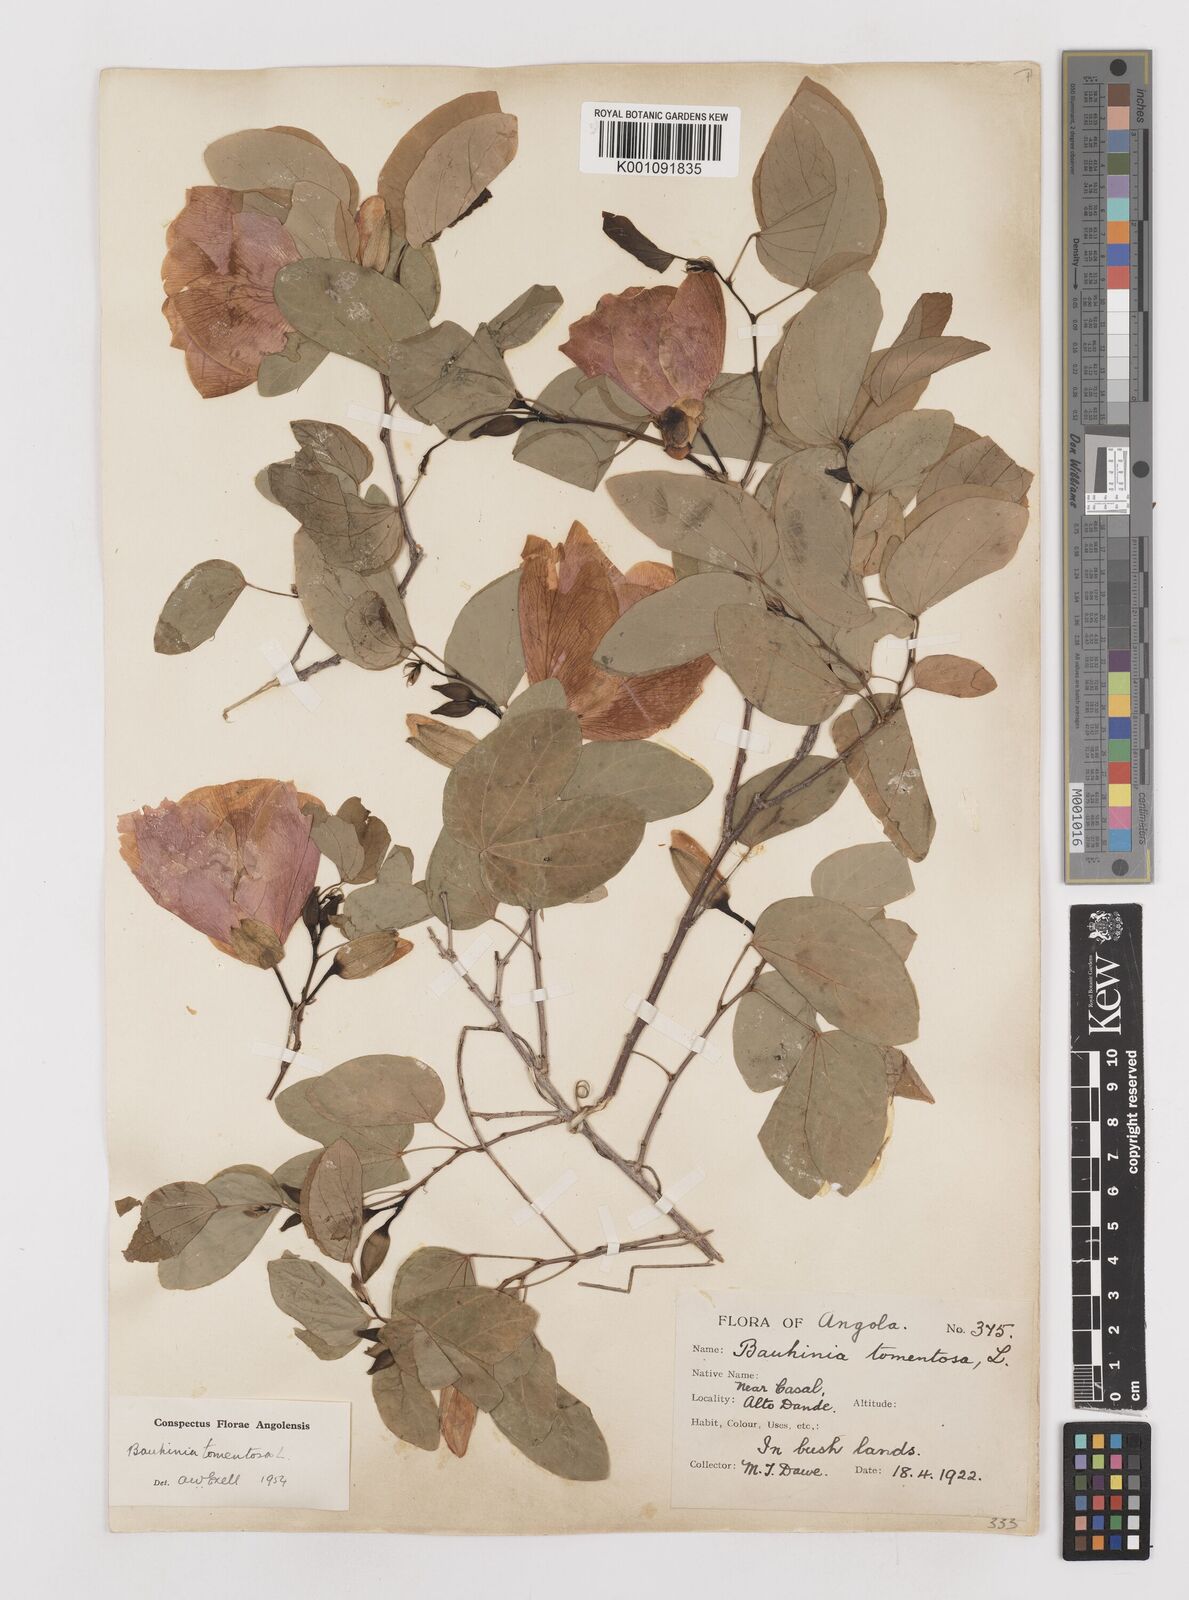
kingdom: Plantae
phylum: Tracheophyta
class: Magnoliopsida
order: Fabales
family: Fabaceae
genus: Bauhinia
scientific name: Bauhinia tomentosa
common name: Bell bauhinia
